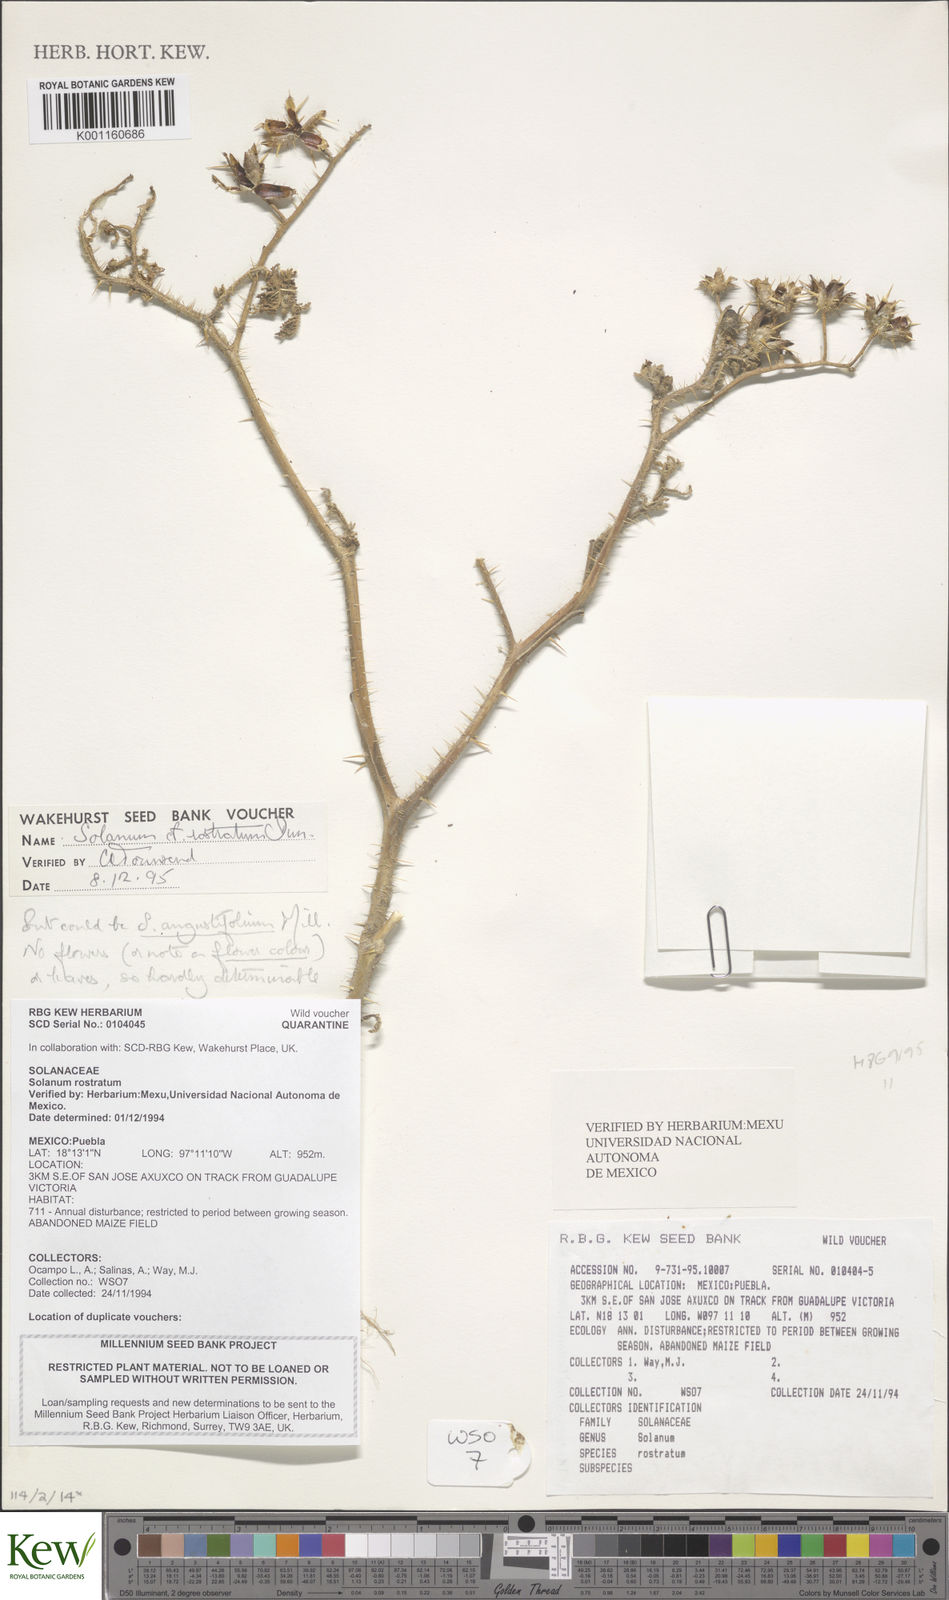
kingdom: Plantae
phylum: Tracheophyta
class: Magnoliopsida
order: Solanales
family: Solanaceae
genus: Solanum
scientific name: Solanum angustifolium
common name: Buffalobur nightshade
